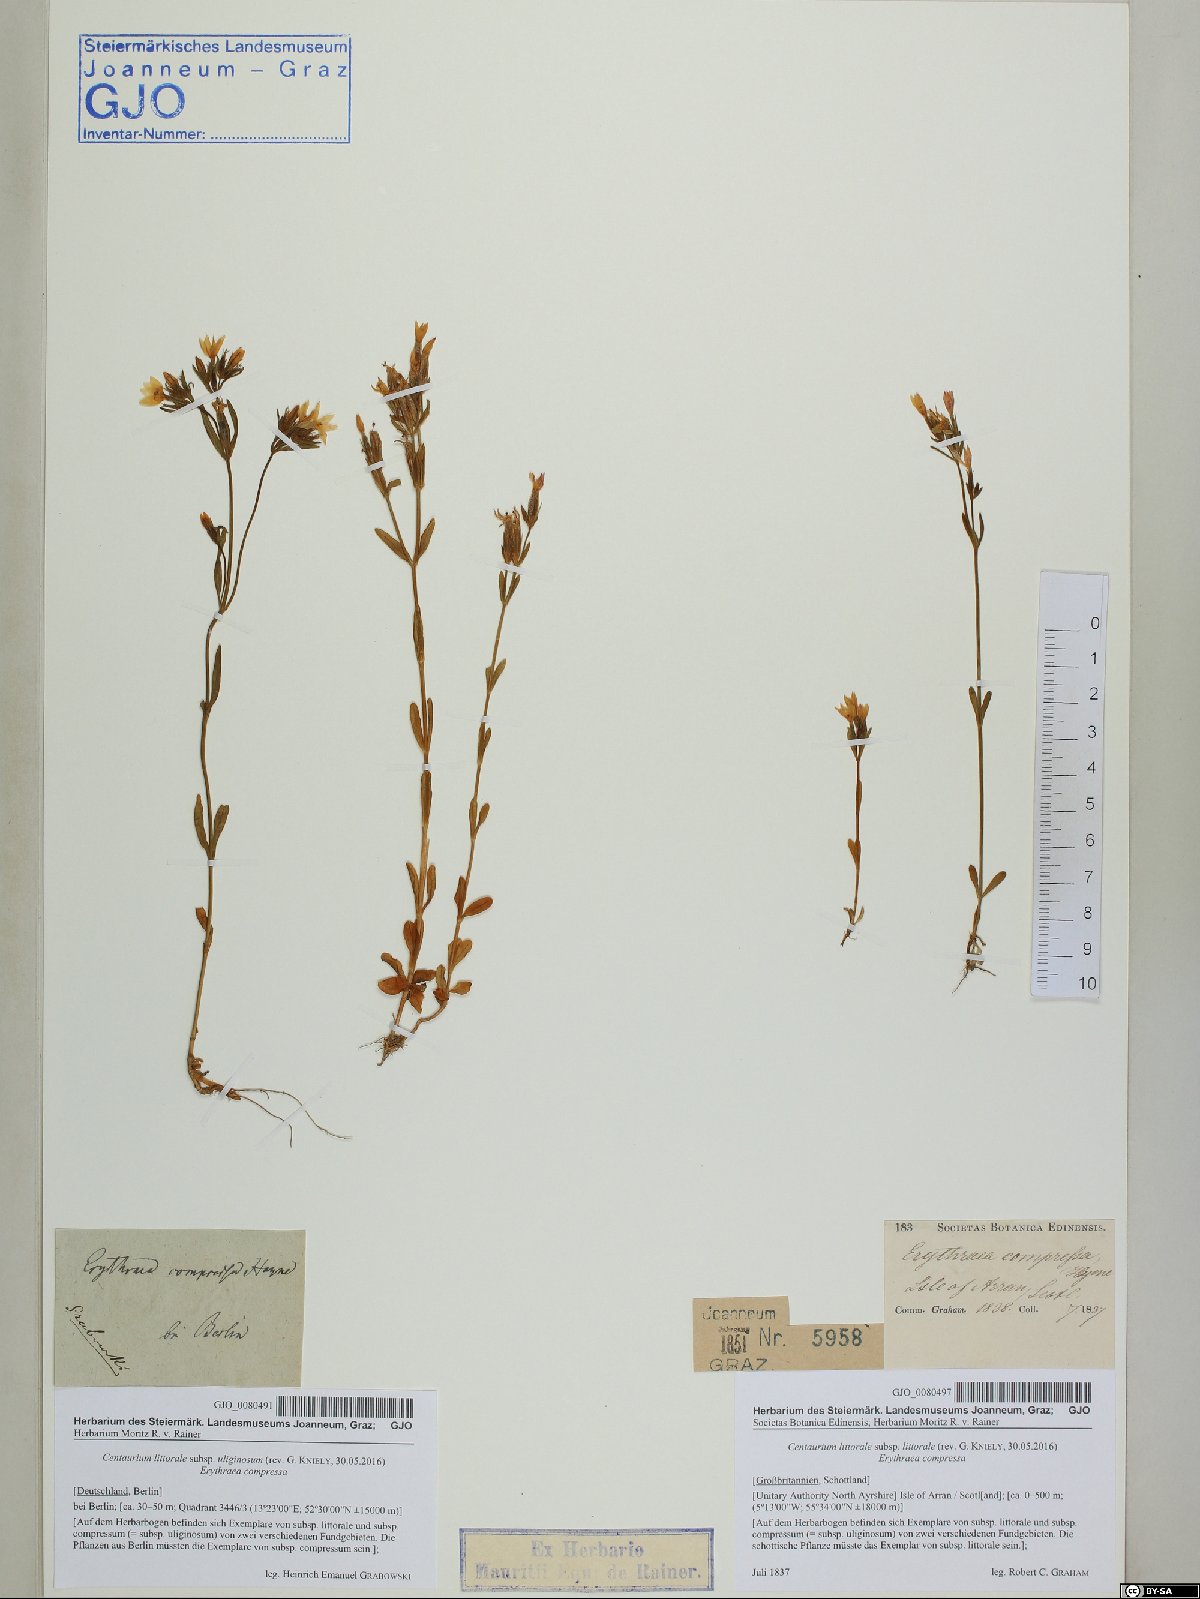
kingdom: Plantae
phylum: Tracheophyta
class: Magnoliopsida
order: Gentianales
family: Gentianaceae
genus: Centaurium
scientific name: Centaurium littorale
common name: Seaside centaury
